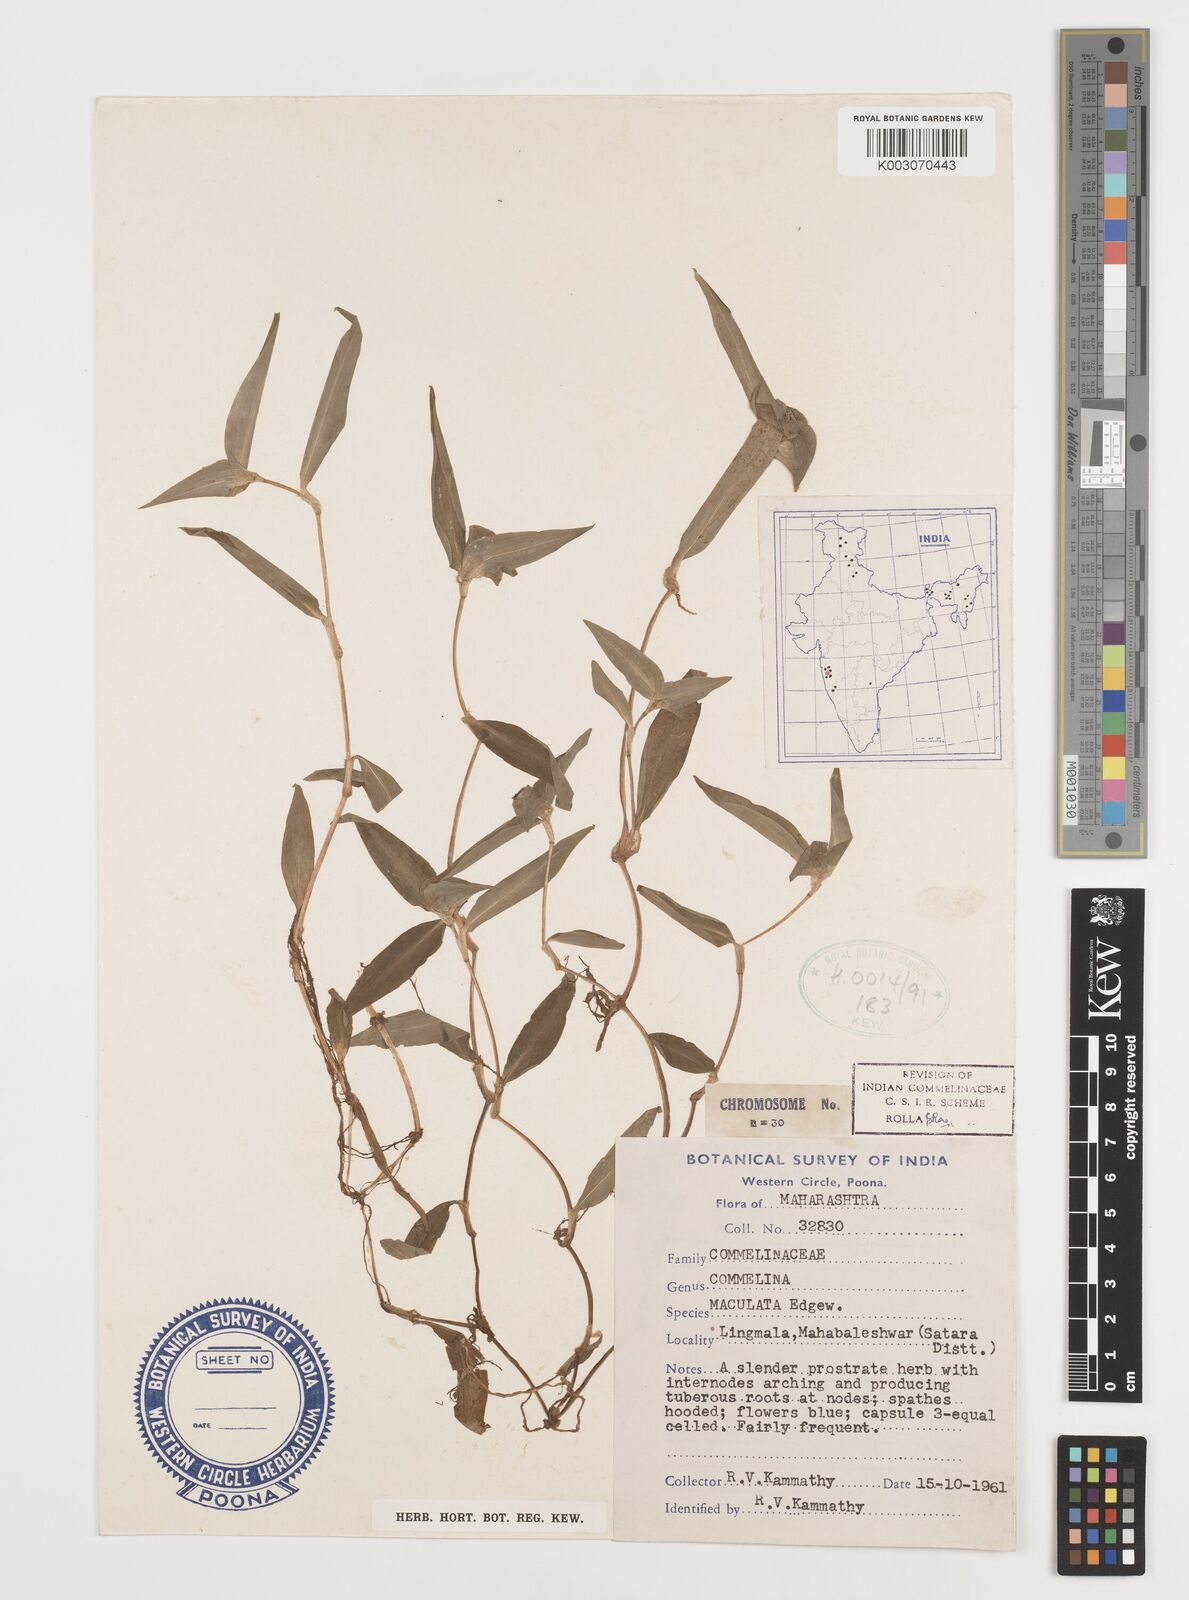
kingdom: Plantae
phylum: Tracheophyta
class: Liliopsida
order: Commelinales
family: Commelinaceae
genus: Commelina
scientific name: Commelina maculata
